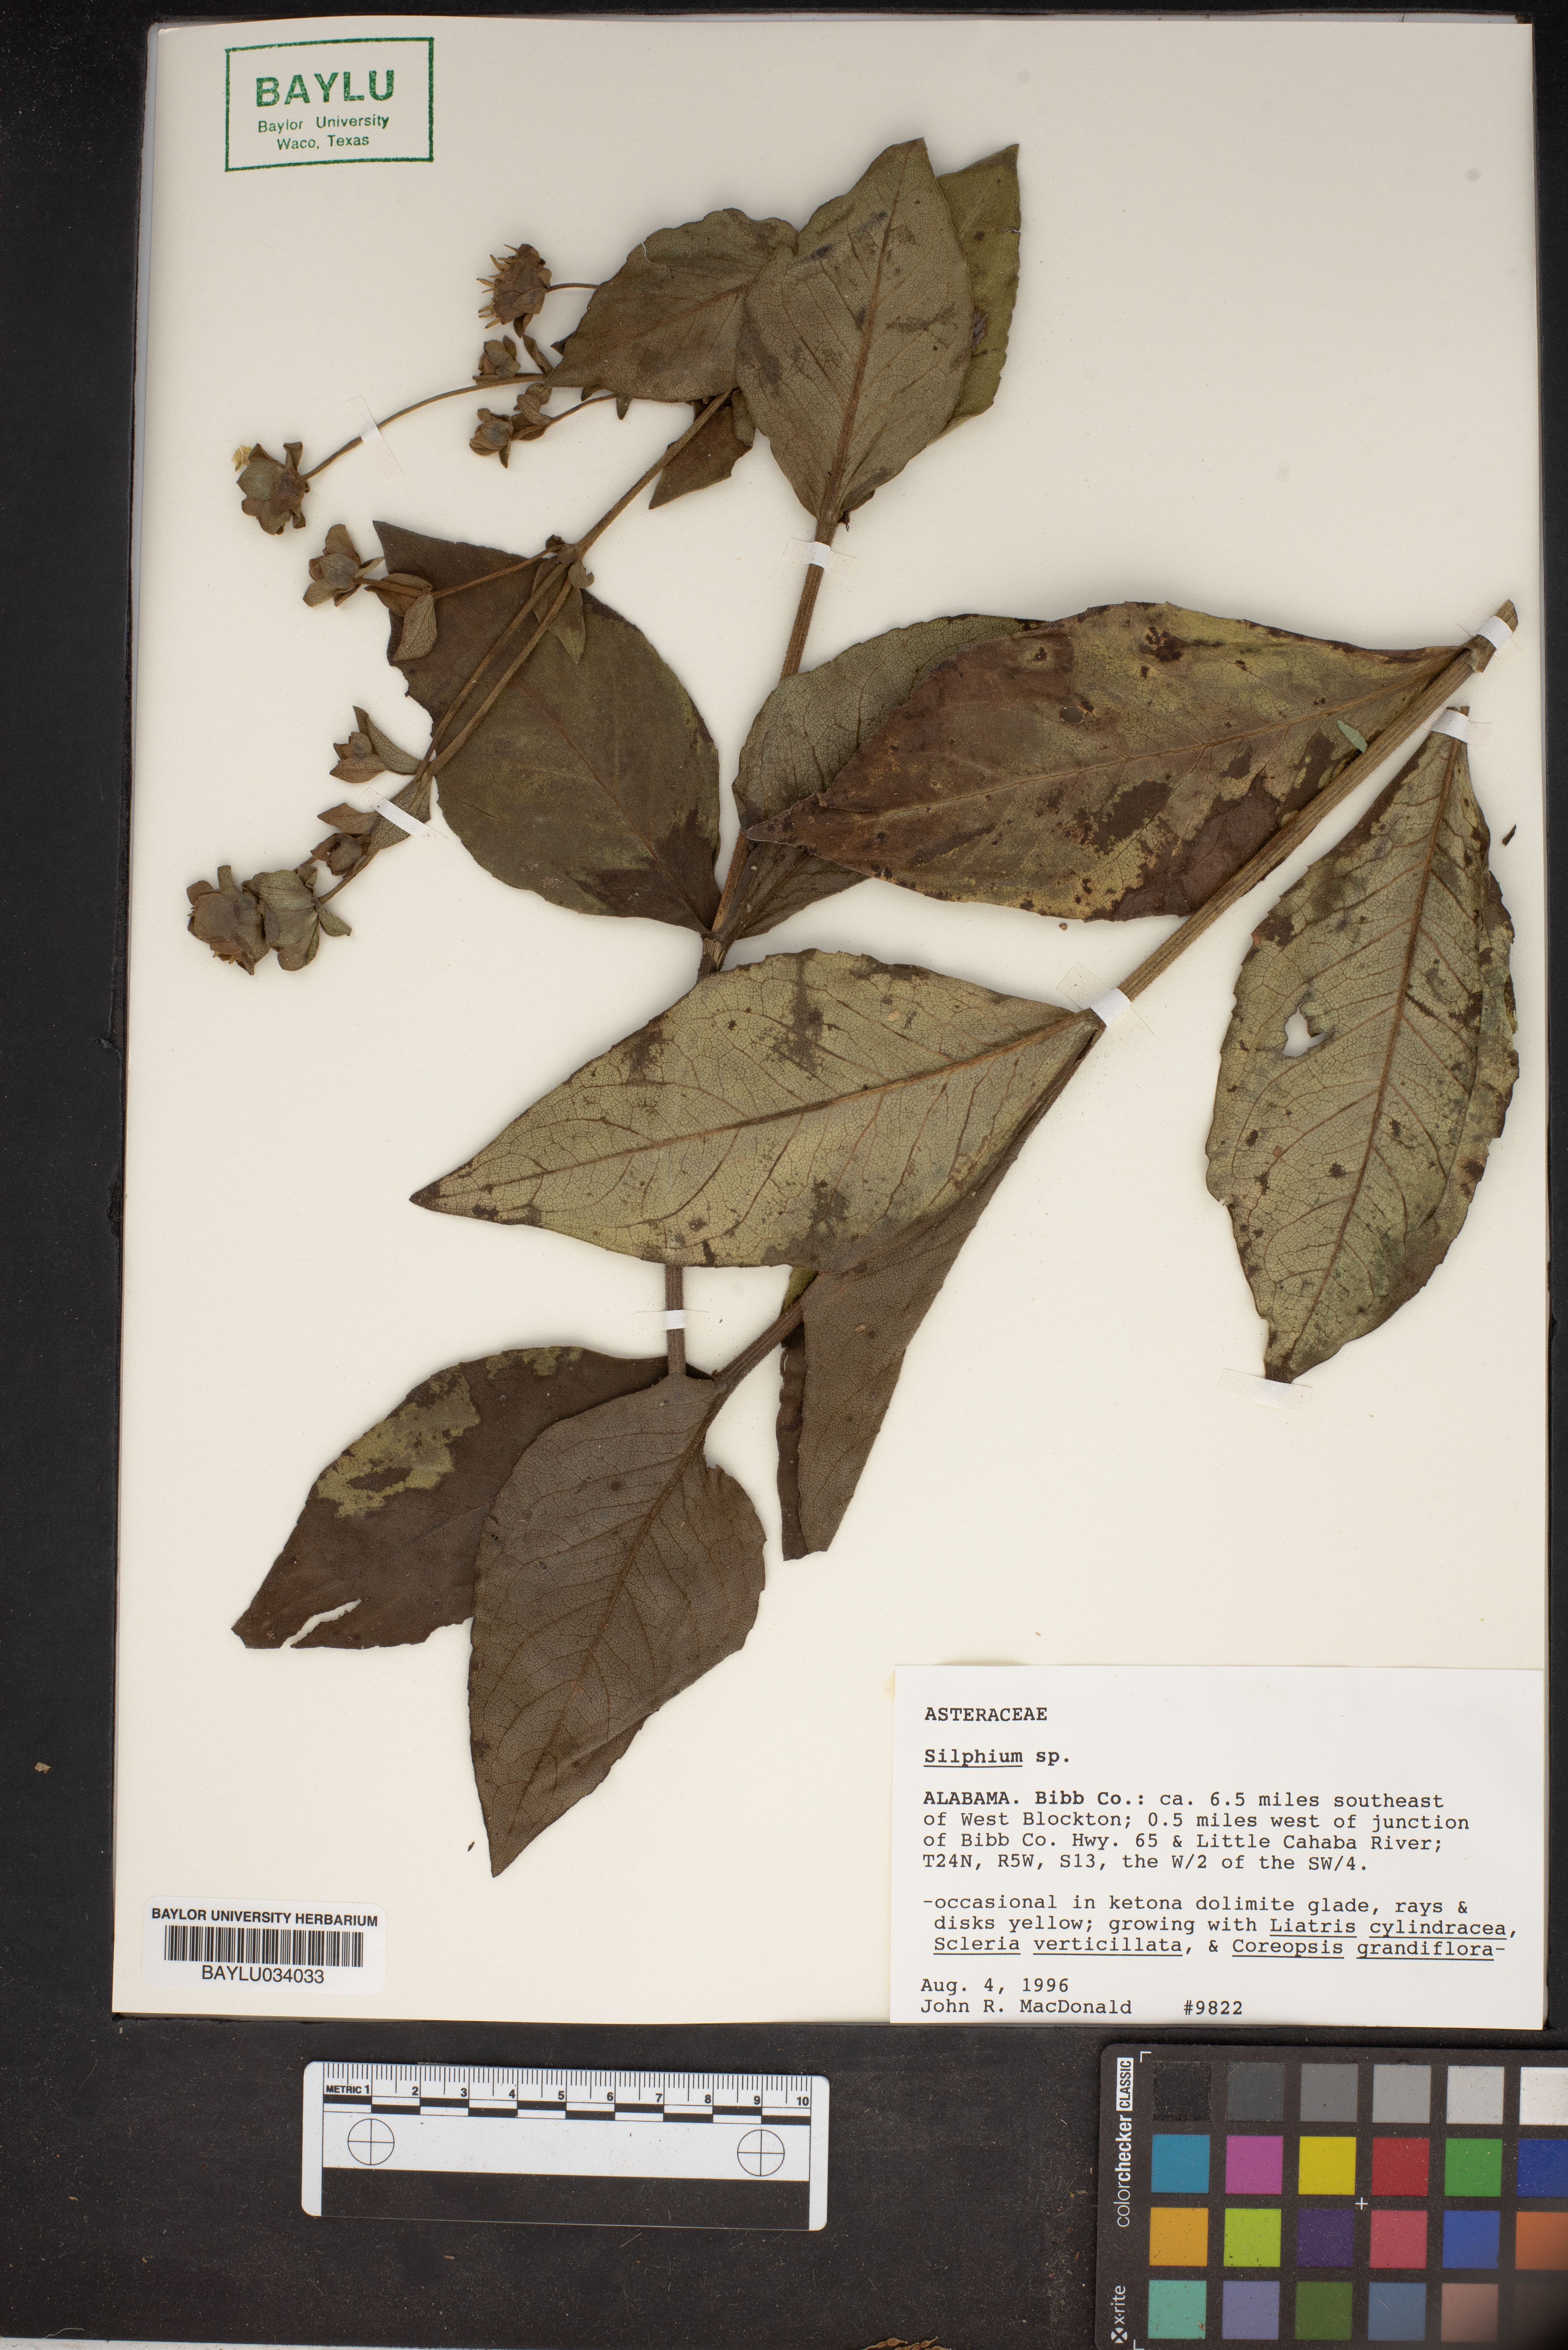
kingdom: Plantae
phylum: Tracheophyta
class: Magnoliopsida
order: Asterales
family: Asteraceae
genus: Silphium
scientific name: Silphium
